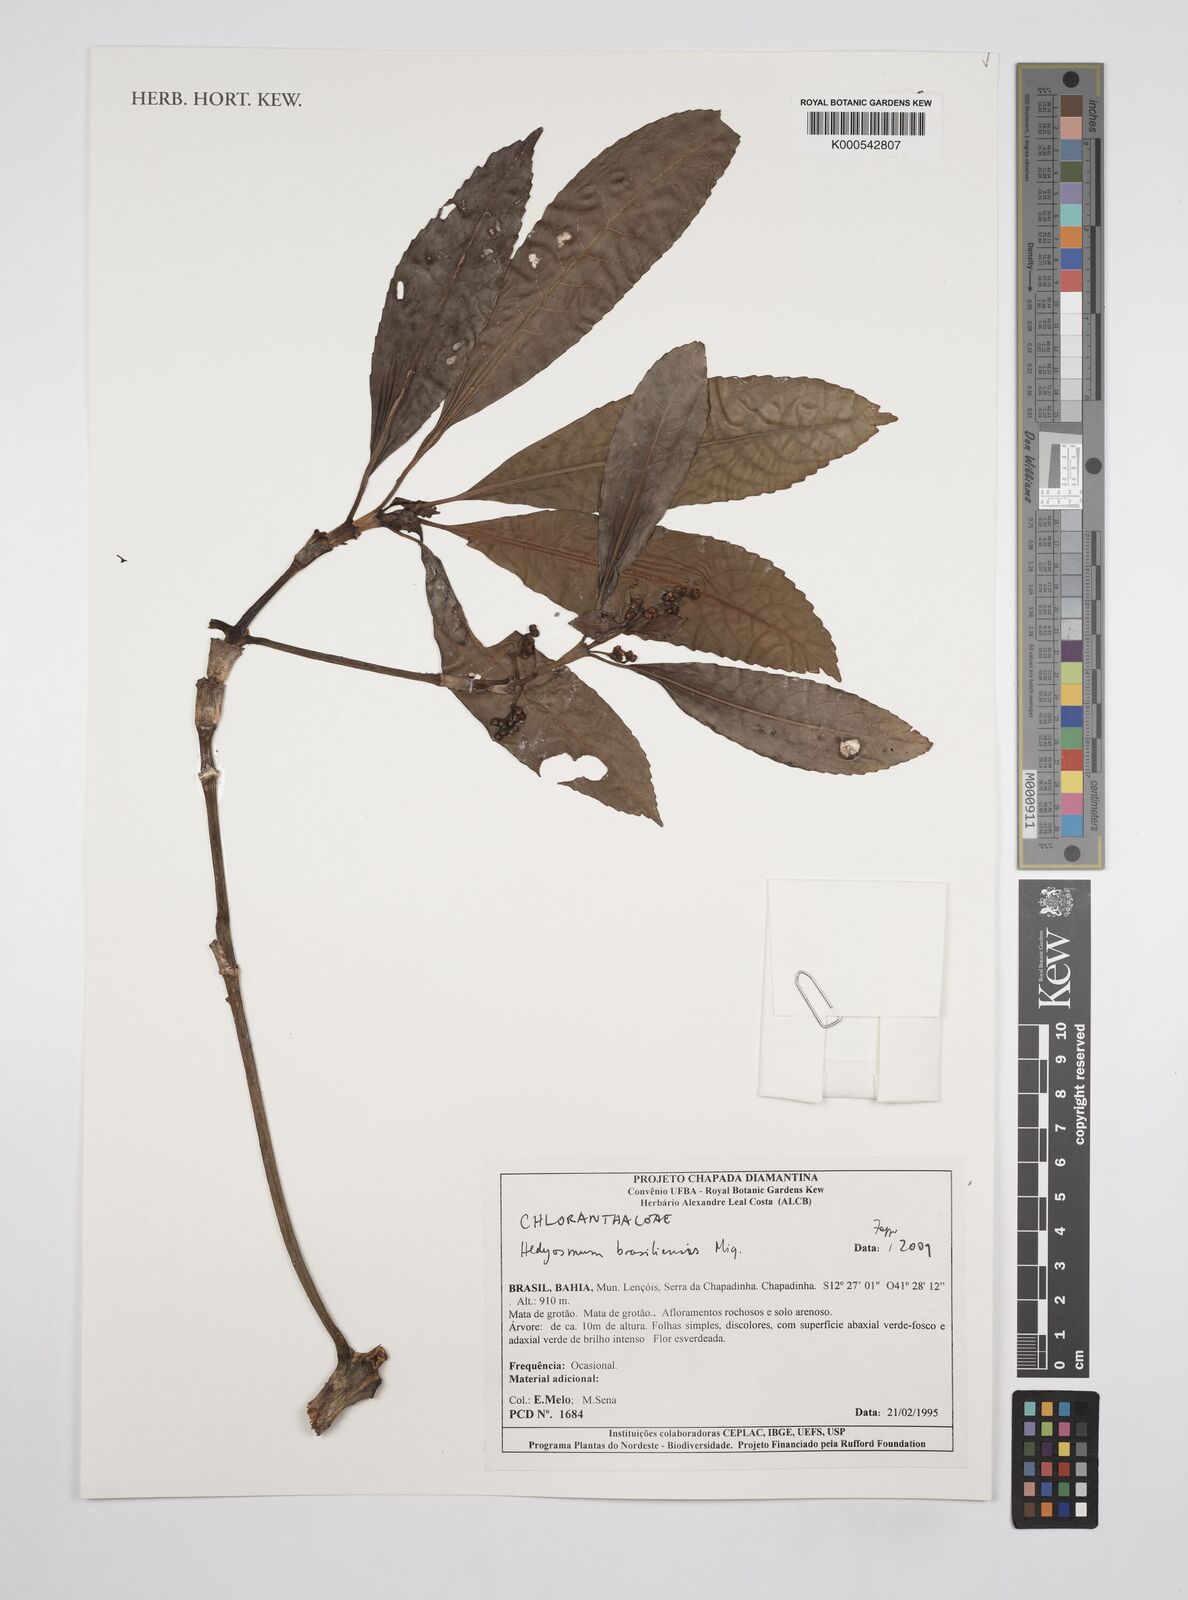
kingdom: Plantae
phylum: Tracheophyta
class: Magnoliopsida
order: Chloranthales
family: Chloranthaceae
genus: Hedyosmum
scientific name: Hedyosmum
